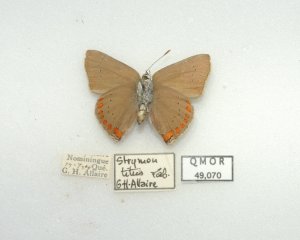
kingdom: Animalia
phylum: Arthropoda
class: Insecta
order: Lepidoptera
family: Lycaenidae
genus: Harkenclenus
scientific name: Harkenclenus titus
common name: Coral Hairstreak
